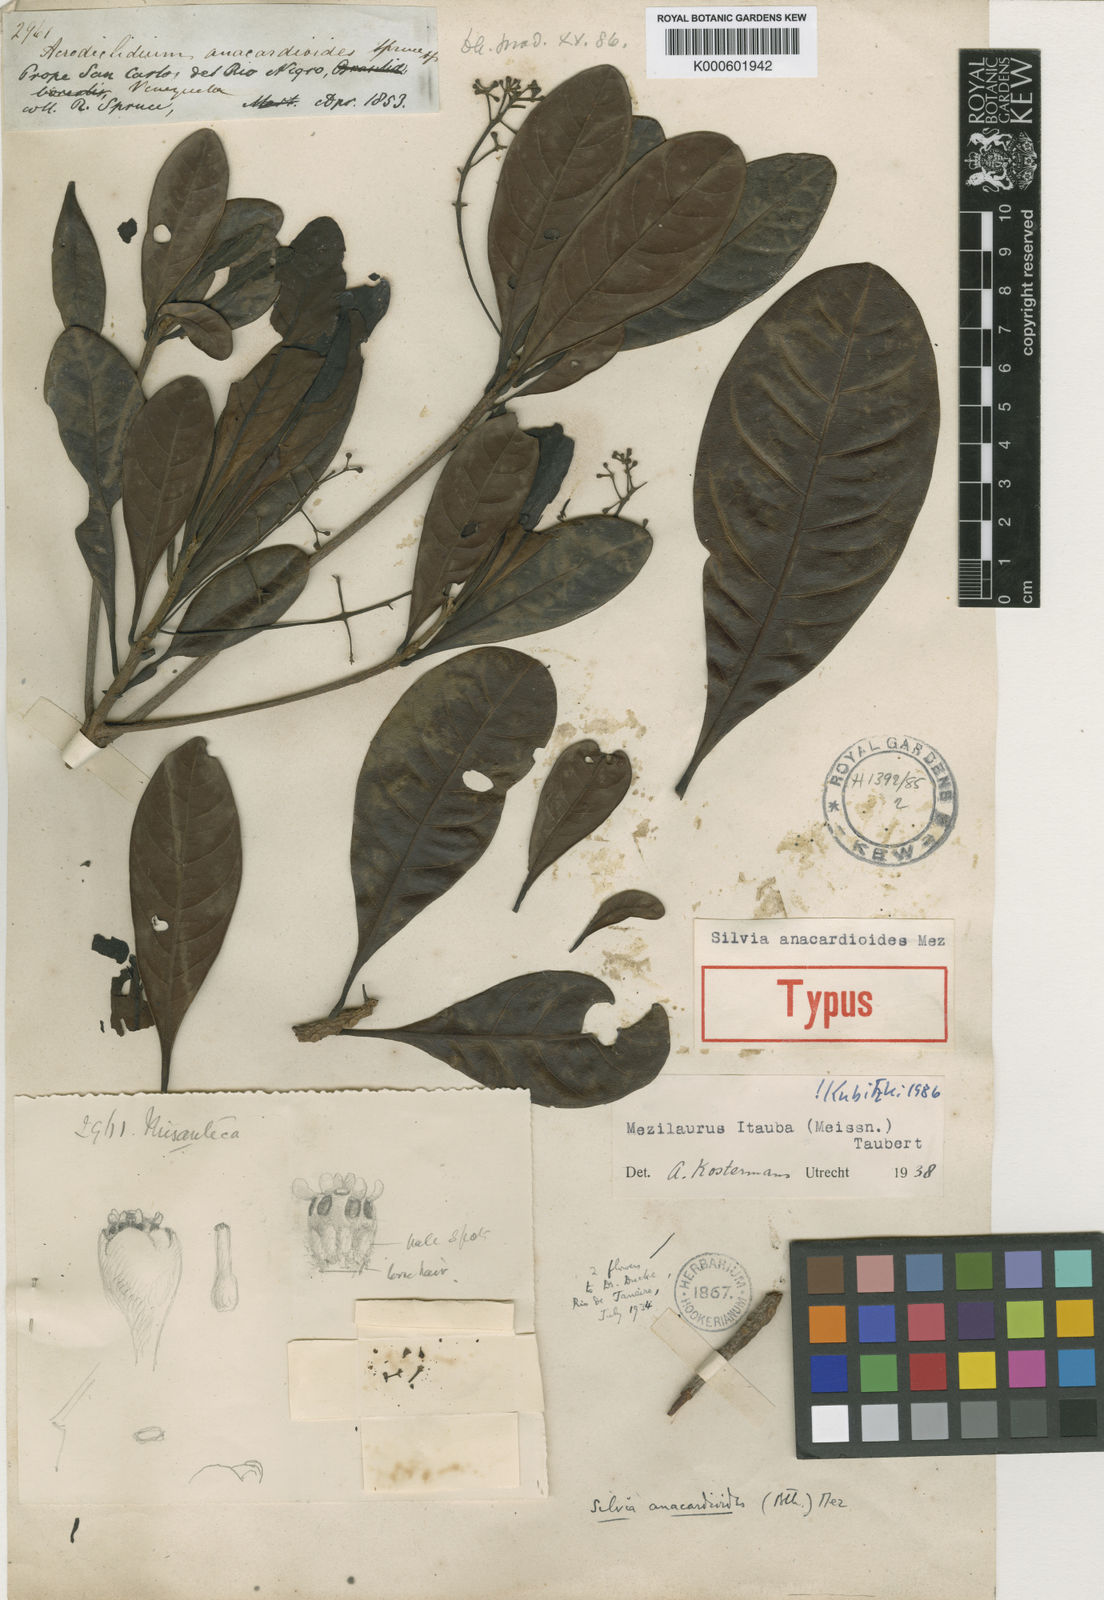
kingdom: Plantae
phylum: Tracheophyta
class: Magnoliopsida
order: Laurales
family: Lauraceae
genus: Mezilaurus
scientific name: Mezilaurus ita-uba
